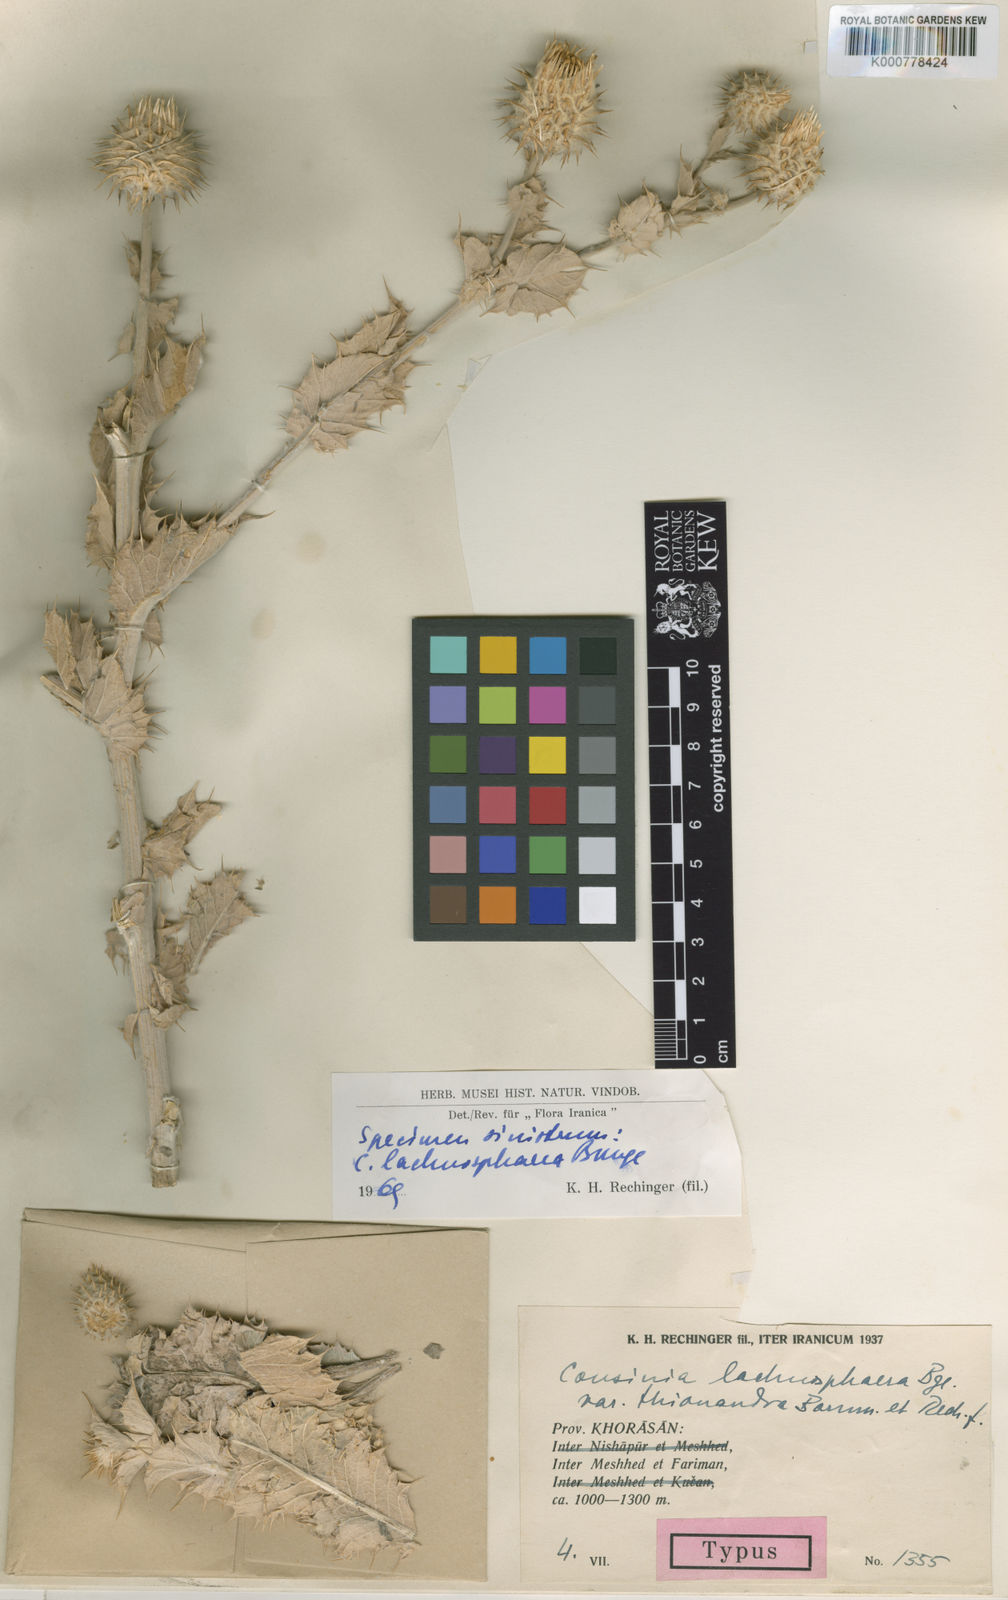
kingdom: Plantae
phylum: Tracheophyta
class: Magnoliopsida
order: Asterales
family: Asteraceae
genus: Cousinia
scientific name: Cousinia lachnosphaera
